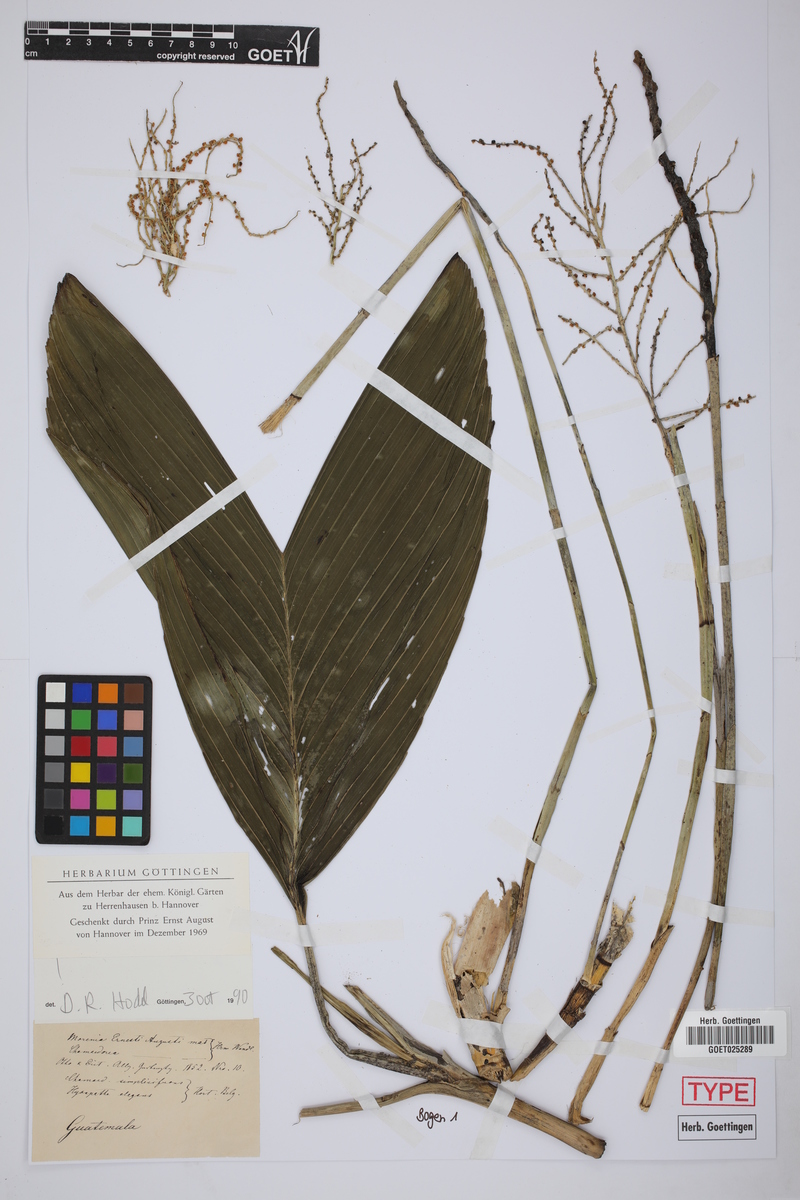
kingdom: Plantae
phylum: Tracheophyta
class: Liliopsida
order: Arecales
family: Arecaceae
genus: Chamaedorea
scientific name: Chamaedorea ernesti-augusti
